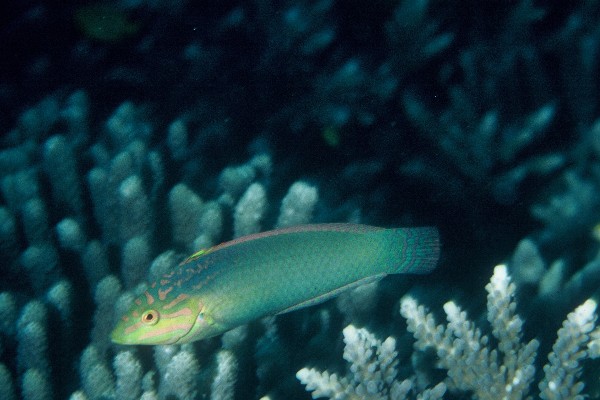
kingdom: Animalia
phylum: Chordata
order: Perciformes
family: Labridae
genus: Halichoeres
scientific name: Halichoeres solorensis
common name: Green wrasse
